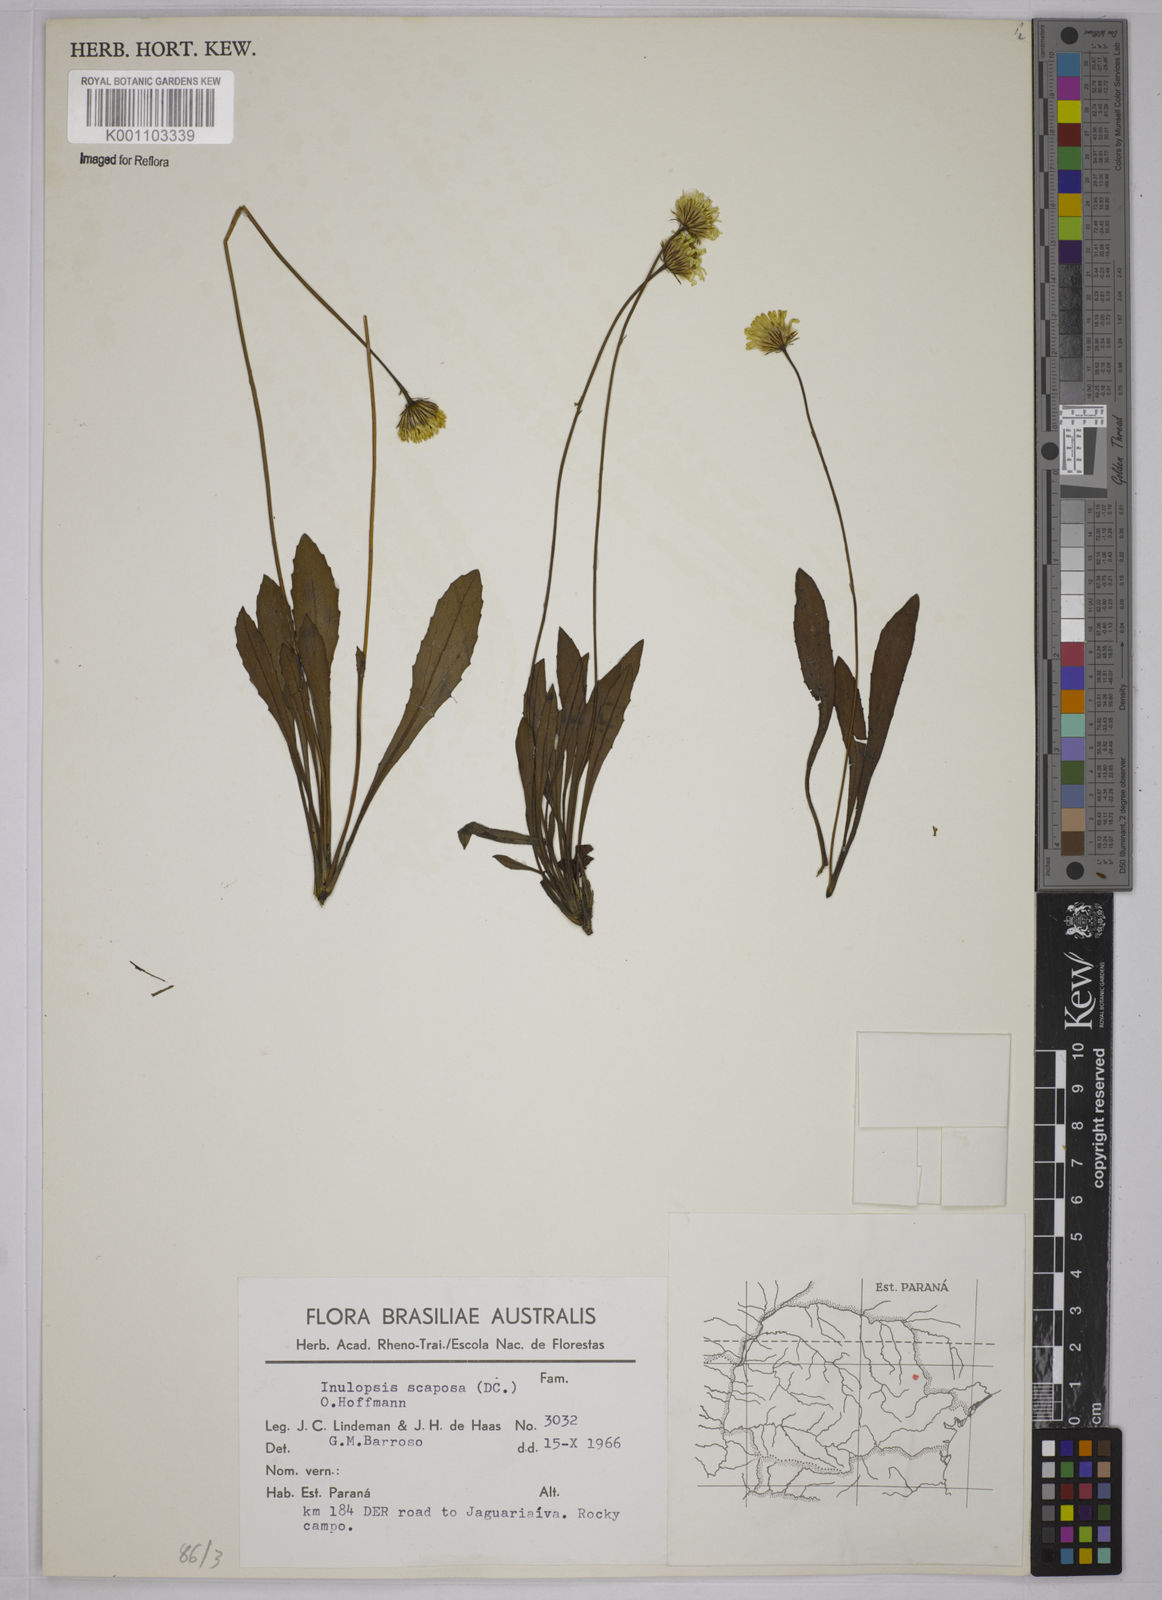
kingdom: Plantae
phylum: Tracheophyta
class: Magnoliopsida
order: Asterales
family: Asteraceae
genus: Inulopsis
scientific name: Inulopsis scaposa
